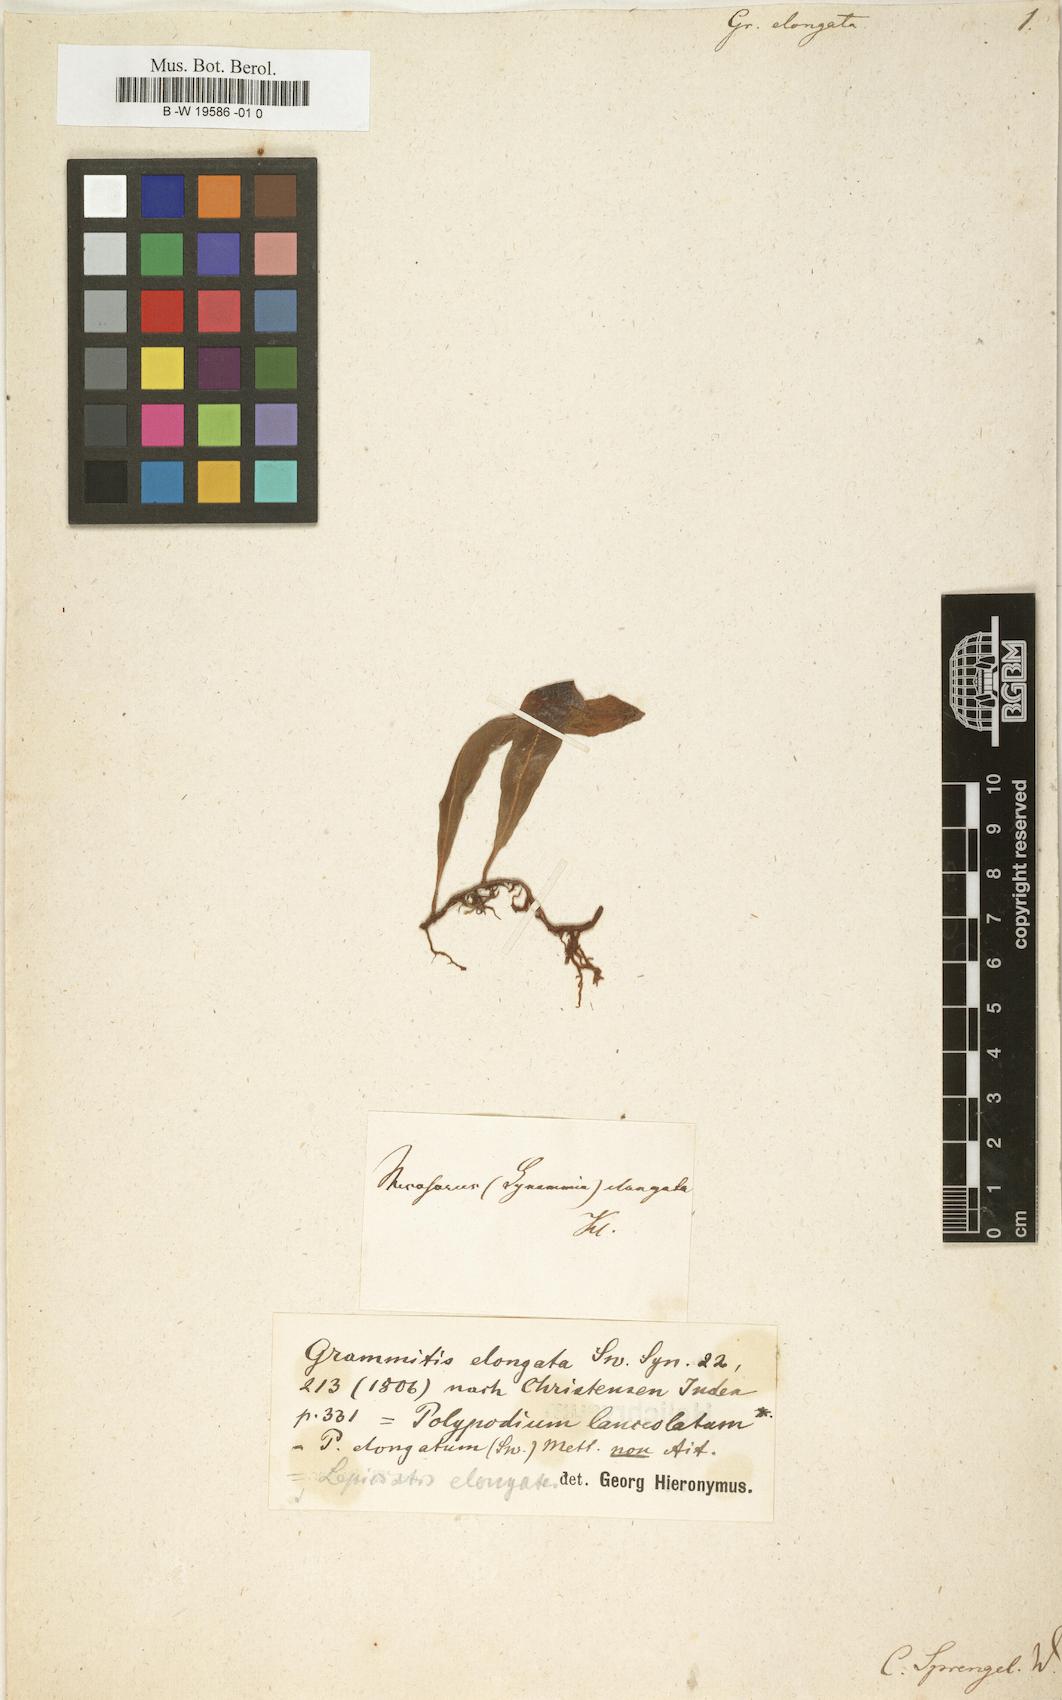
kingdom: Plantae
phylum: Tracheophyta
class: Polypodiopsida
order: Polypodiales
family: Polypodiaceae
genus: Pleopeltis
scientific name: Pleopeltis astrolepis
